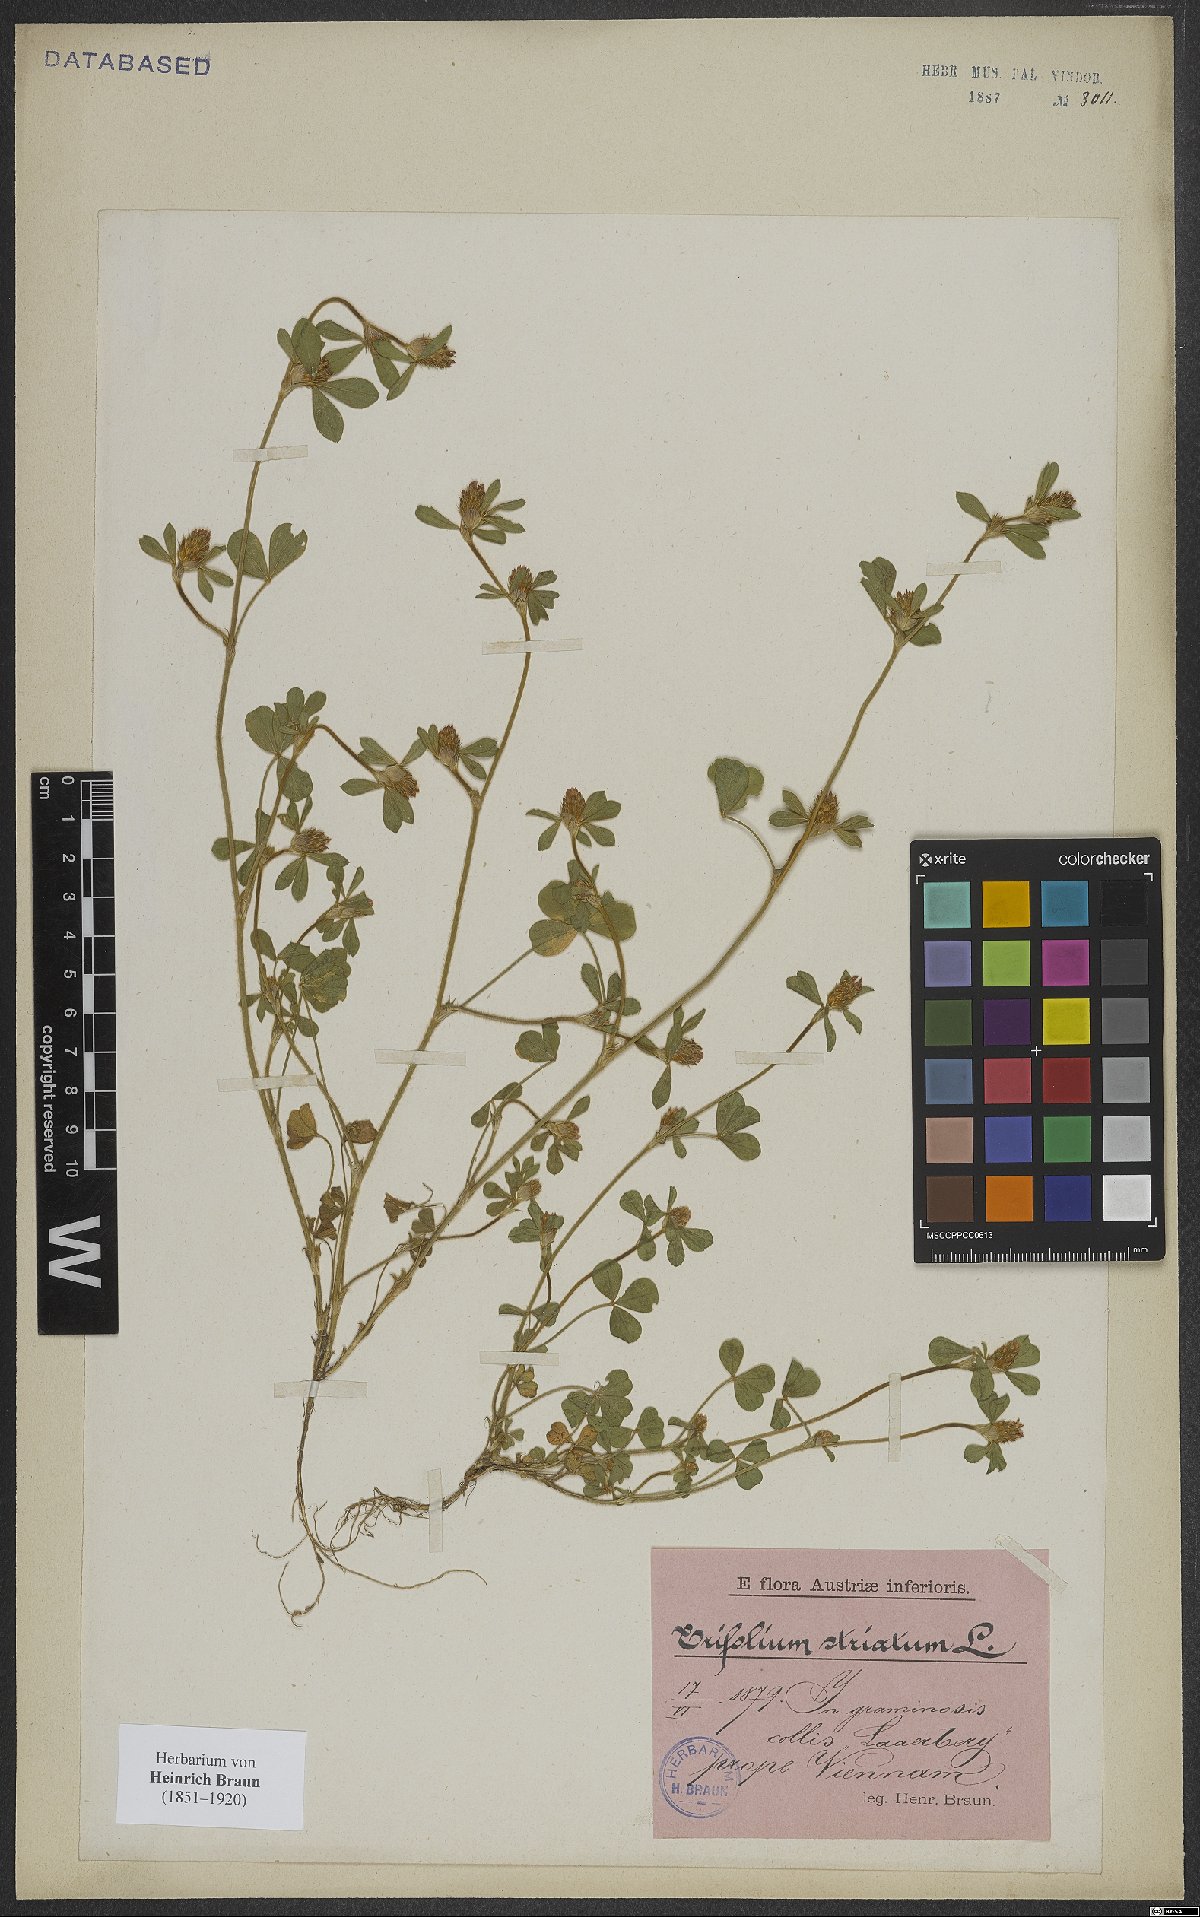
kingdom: Plantae
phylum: Tracheophyta
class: Magnoliopsida
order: Fabales
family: Fabaceae
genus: Trifolium
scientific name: Trifolium striatum
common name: Knotted clover
